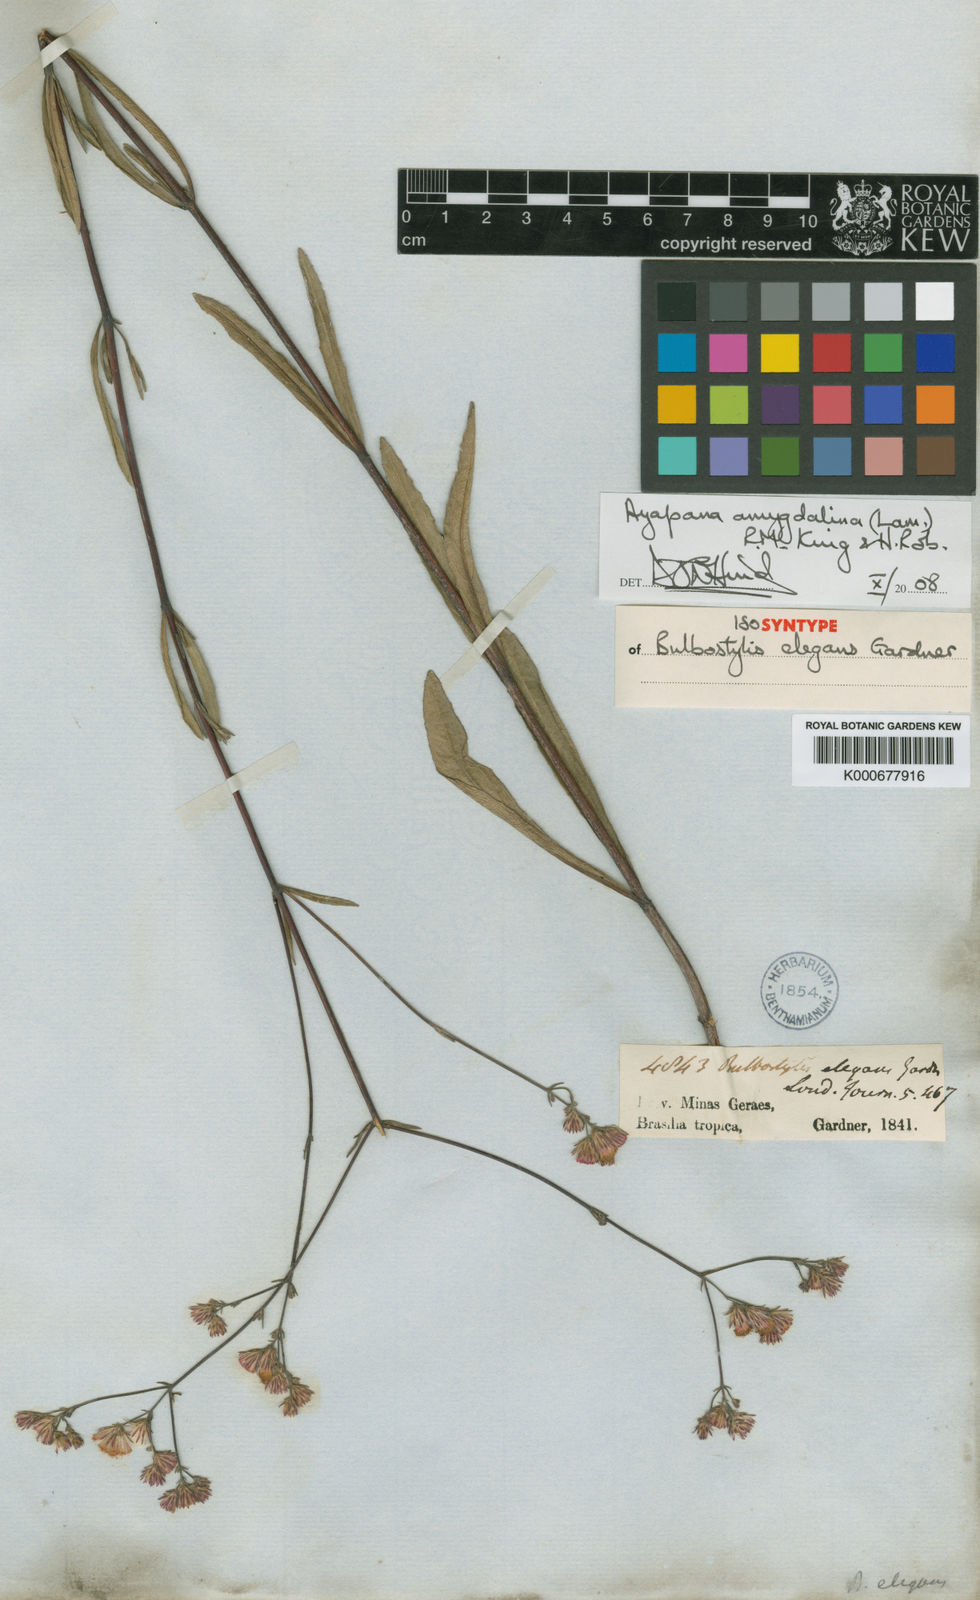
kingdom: Plantae
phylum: Tracheophyta
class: Magnoliopsida
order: Asterales
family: Asteraceae
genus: Ayapana
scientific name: Ayapana amygdalina
